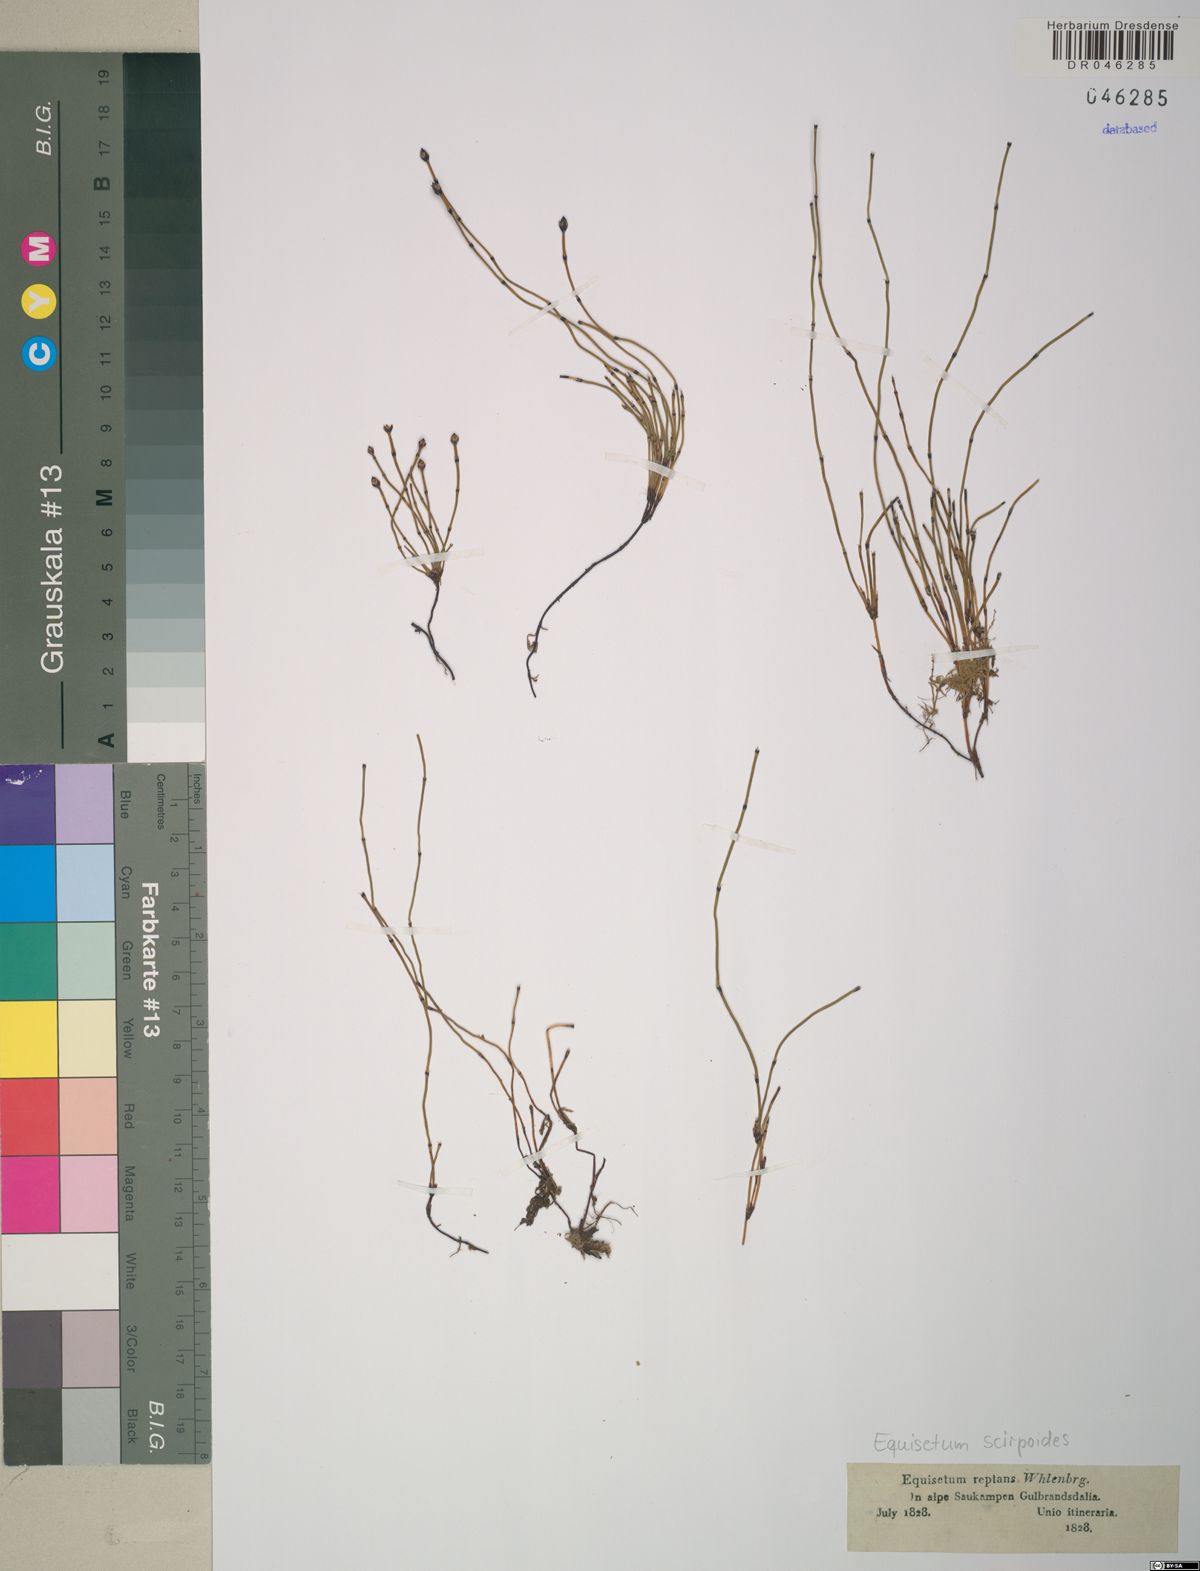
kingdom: Plantae
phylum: Tracheophyta
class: Polypodiopsida
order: Equisetales
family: Equisetaceae
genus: Equisetum
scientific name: Equisetum scirpoides
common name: Delicate horsetail
